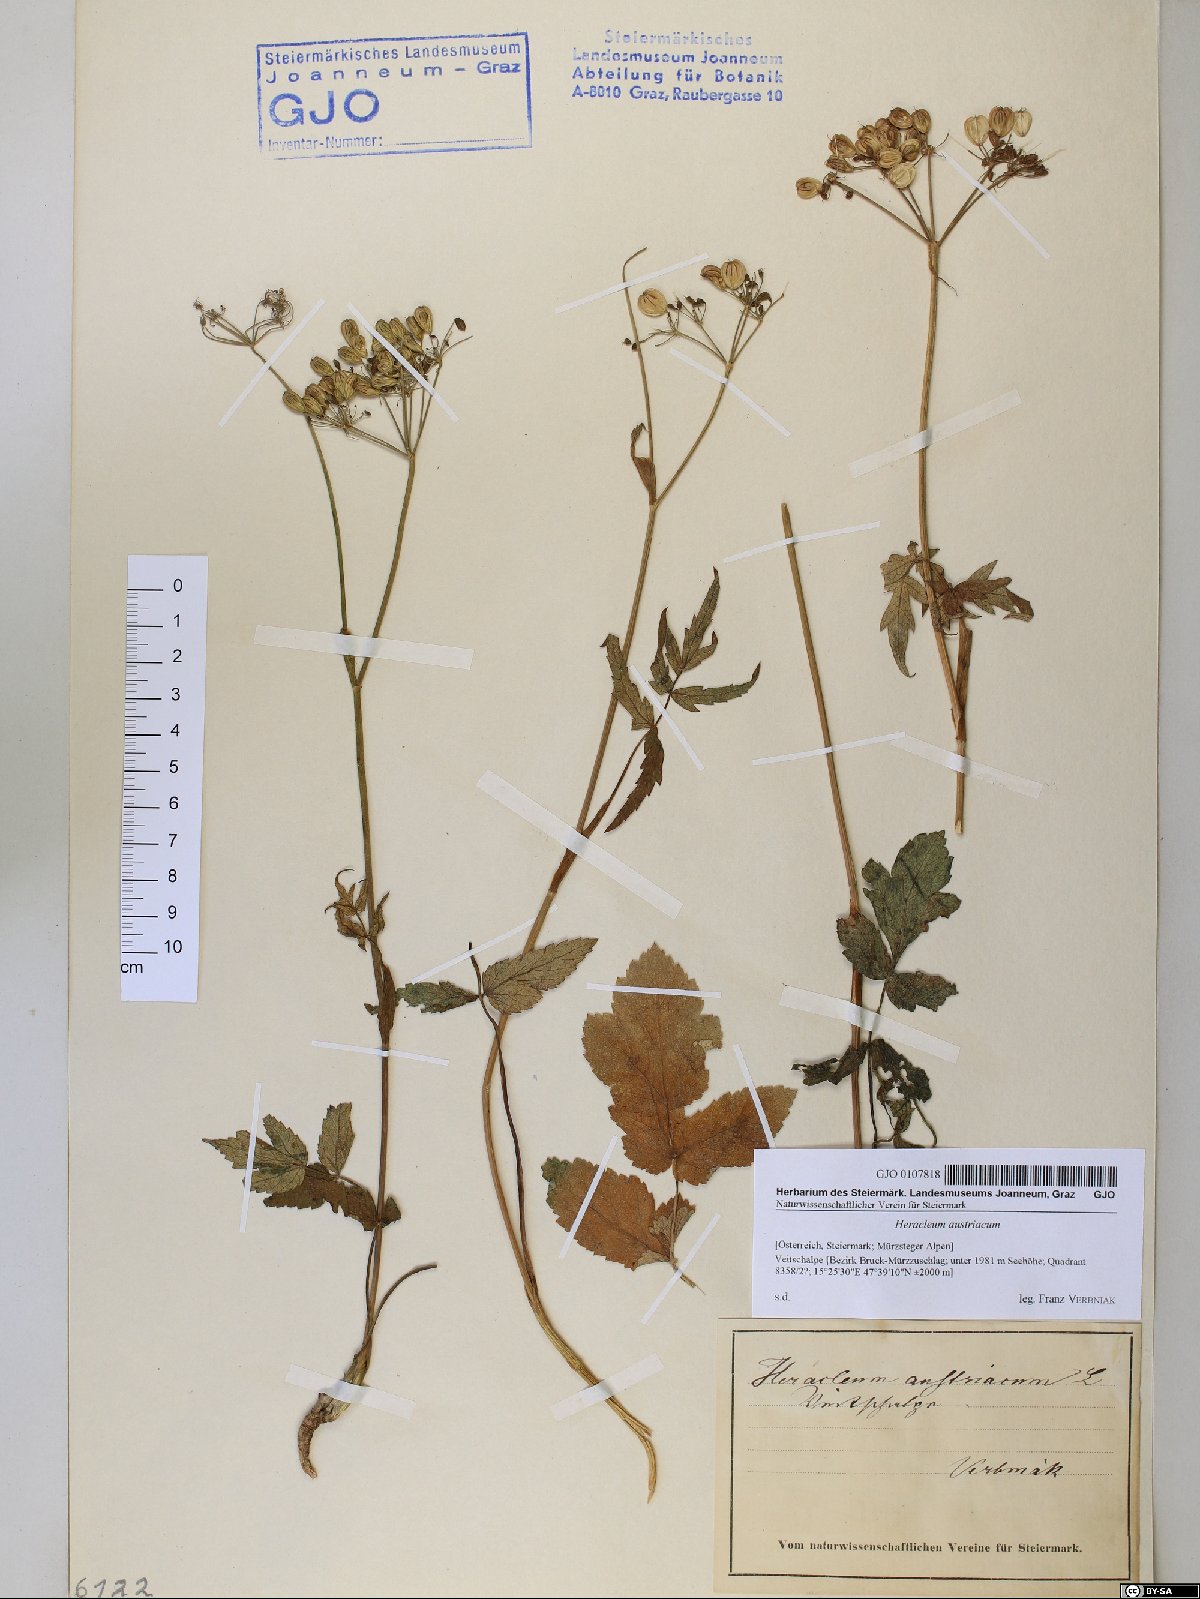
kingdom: Plantae
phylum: Tracheophyta
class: Magnoliopsida
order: Apiales
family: Apiaceae
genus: Heracleum
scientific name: Heracleum austriacum
